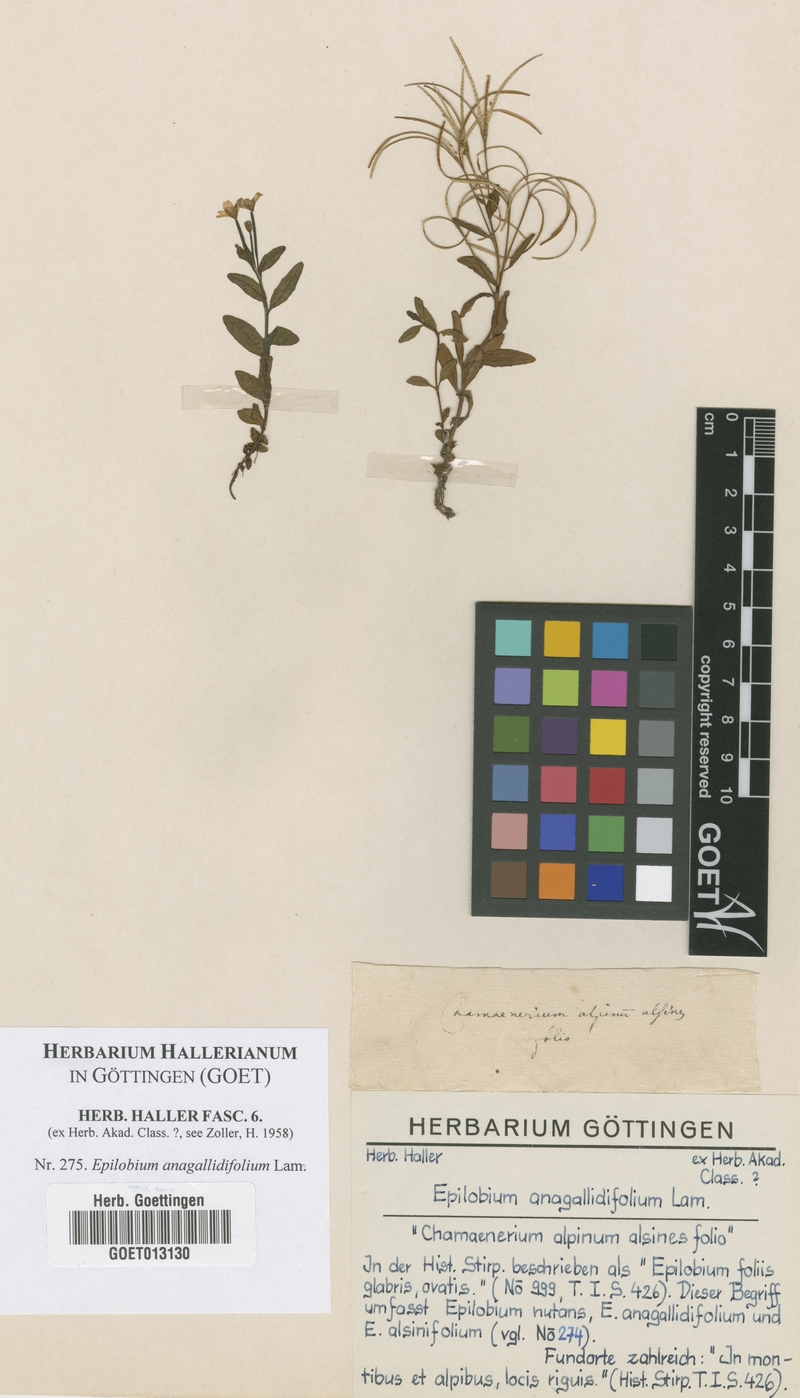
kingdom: Plantae
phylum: Tracheophyta
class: Magnoliopsida
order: Myrtales
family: Onagraceae
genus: Epilobium
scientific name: Epilobium anagallidifolium
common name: Alpine willowherb
